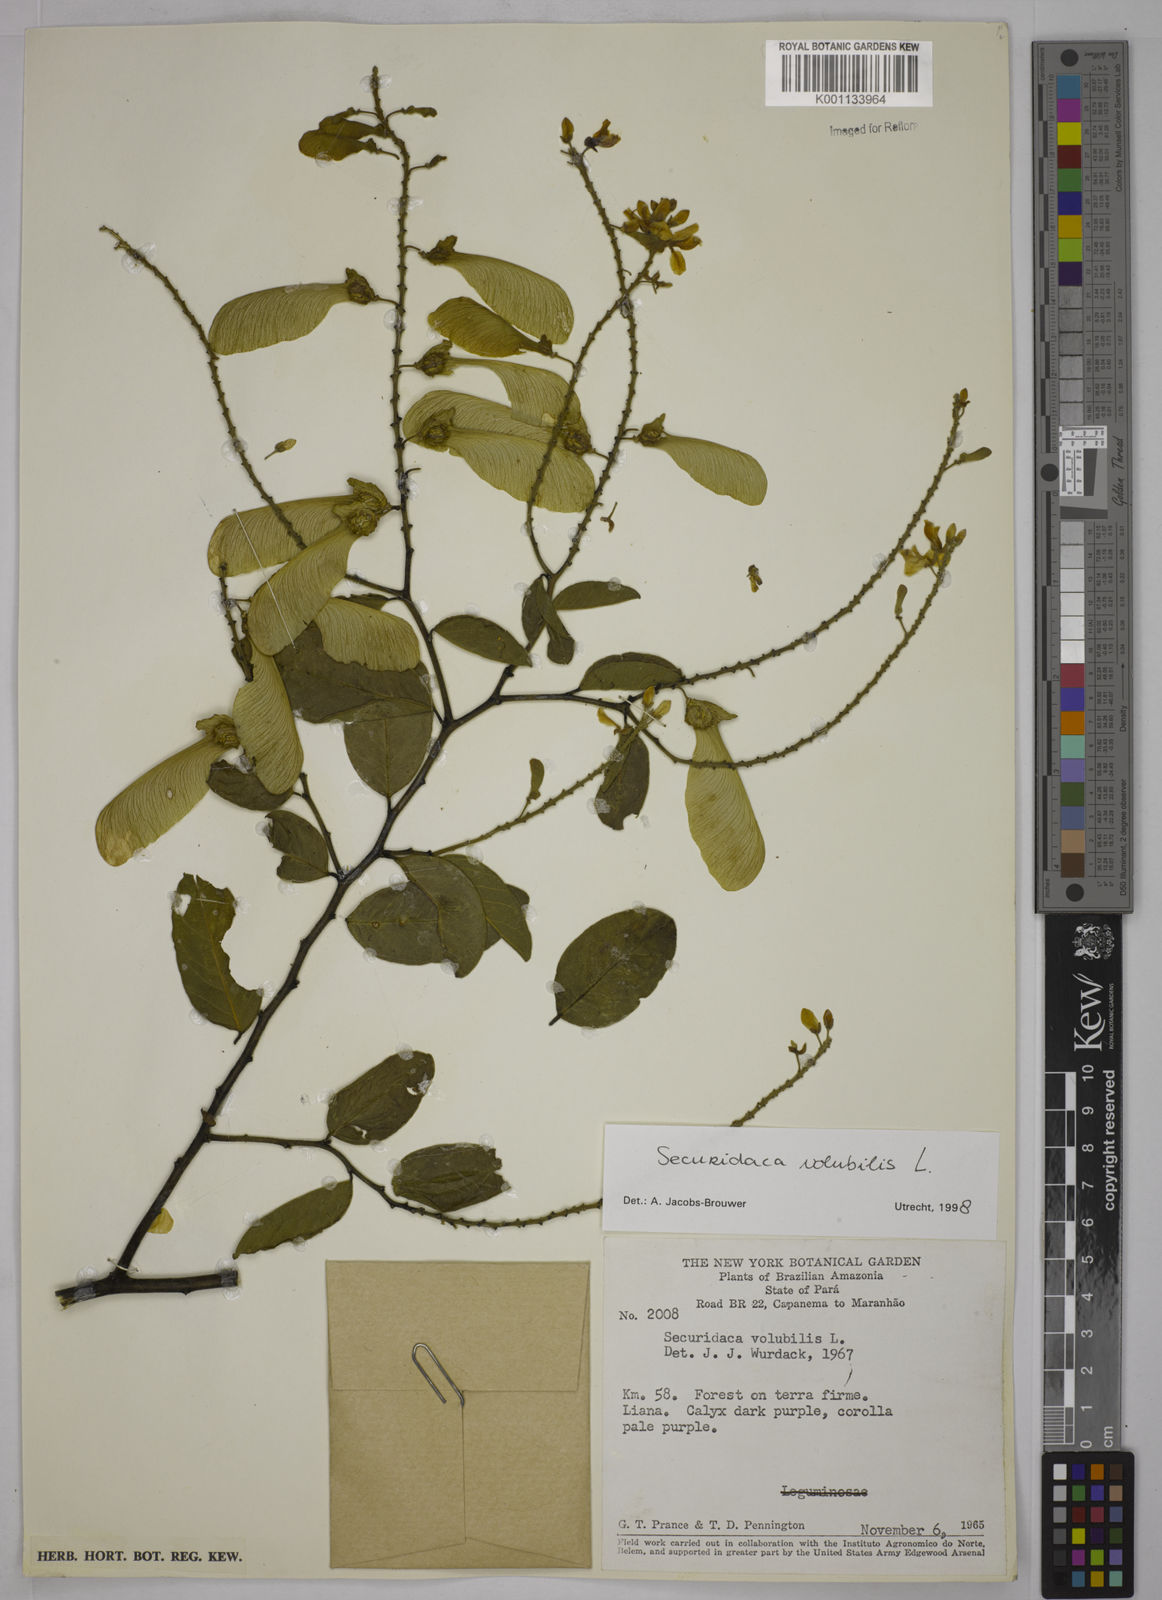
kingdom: Plantae
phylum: Tracheophyta
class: Magnoliopsida
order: Fabales
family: Polygalaceae
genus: Securidaca
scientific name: Securidaca diversifolia
